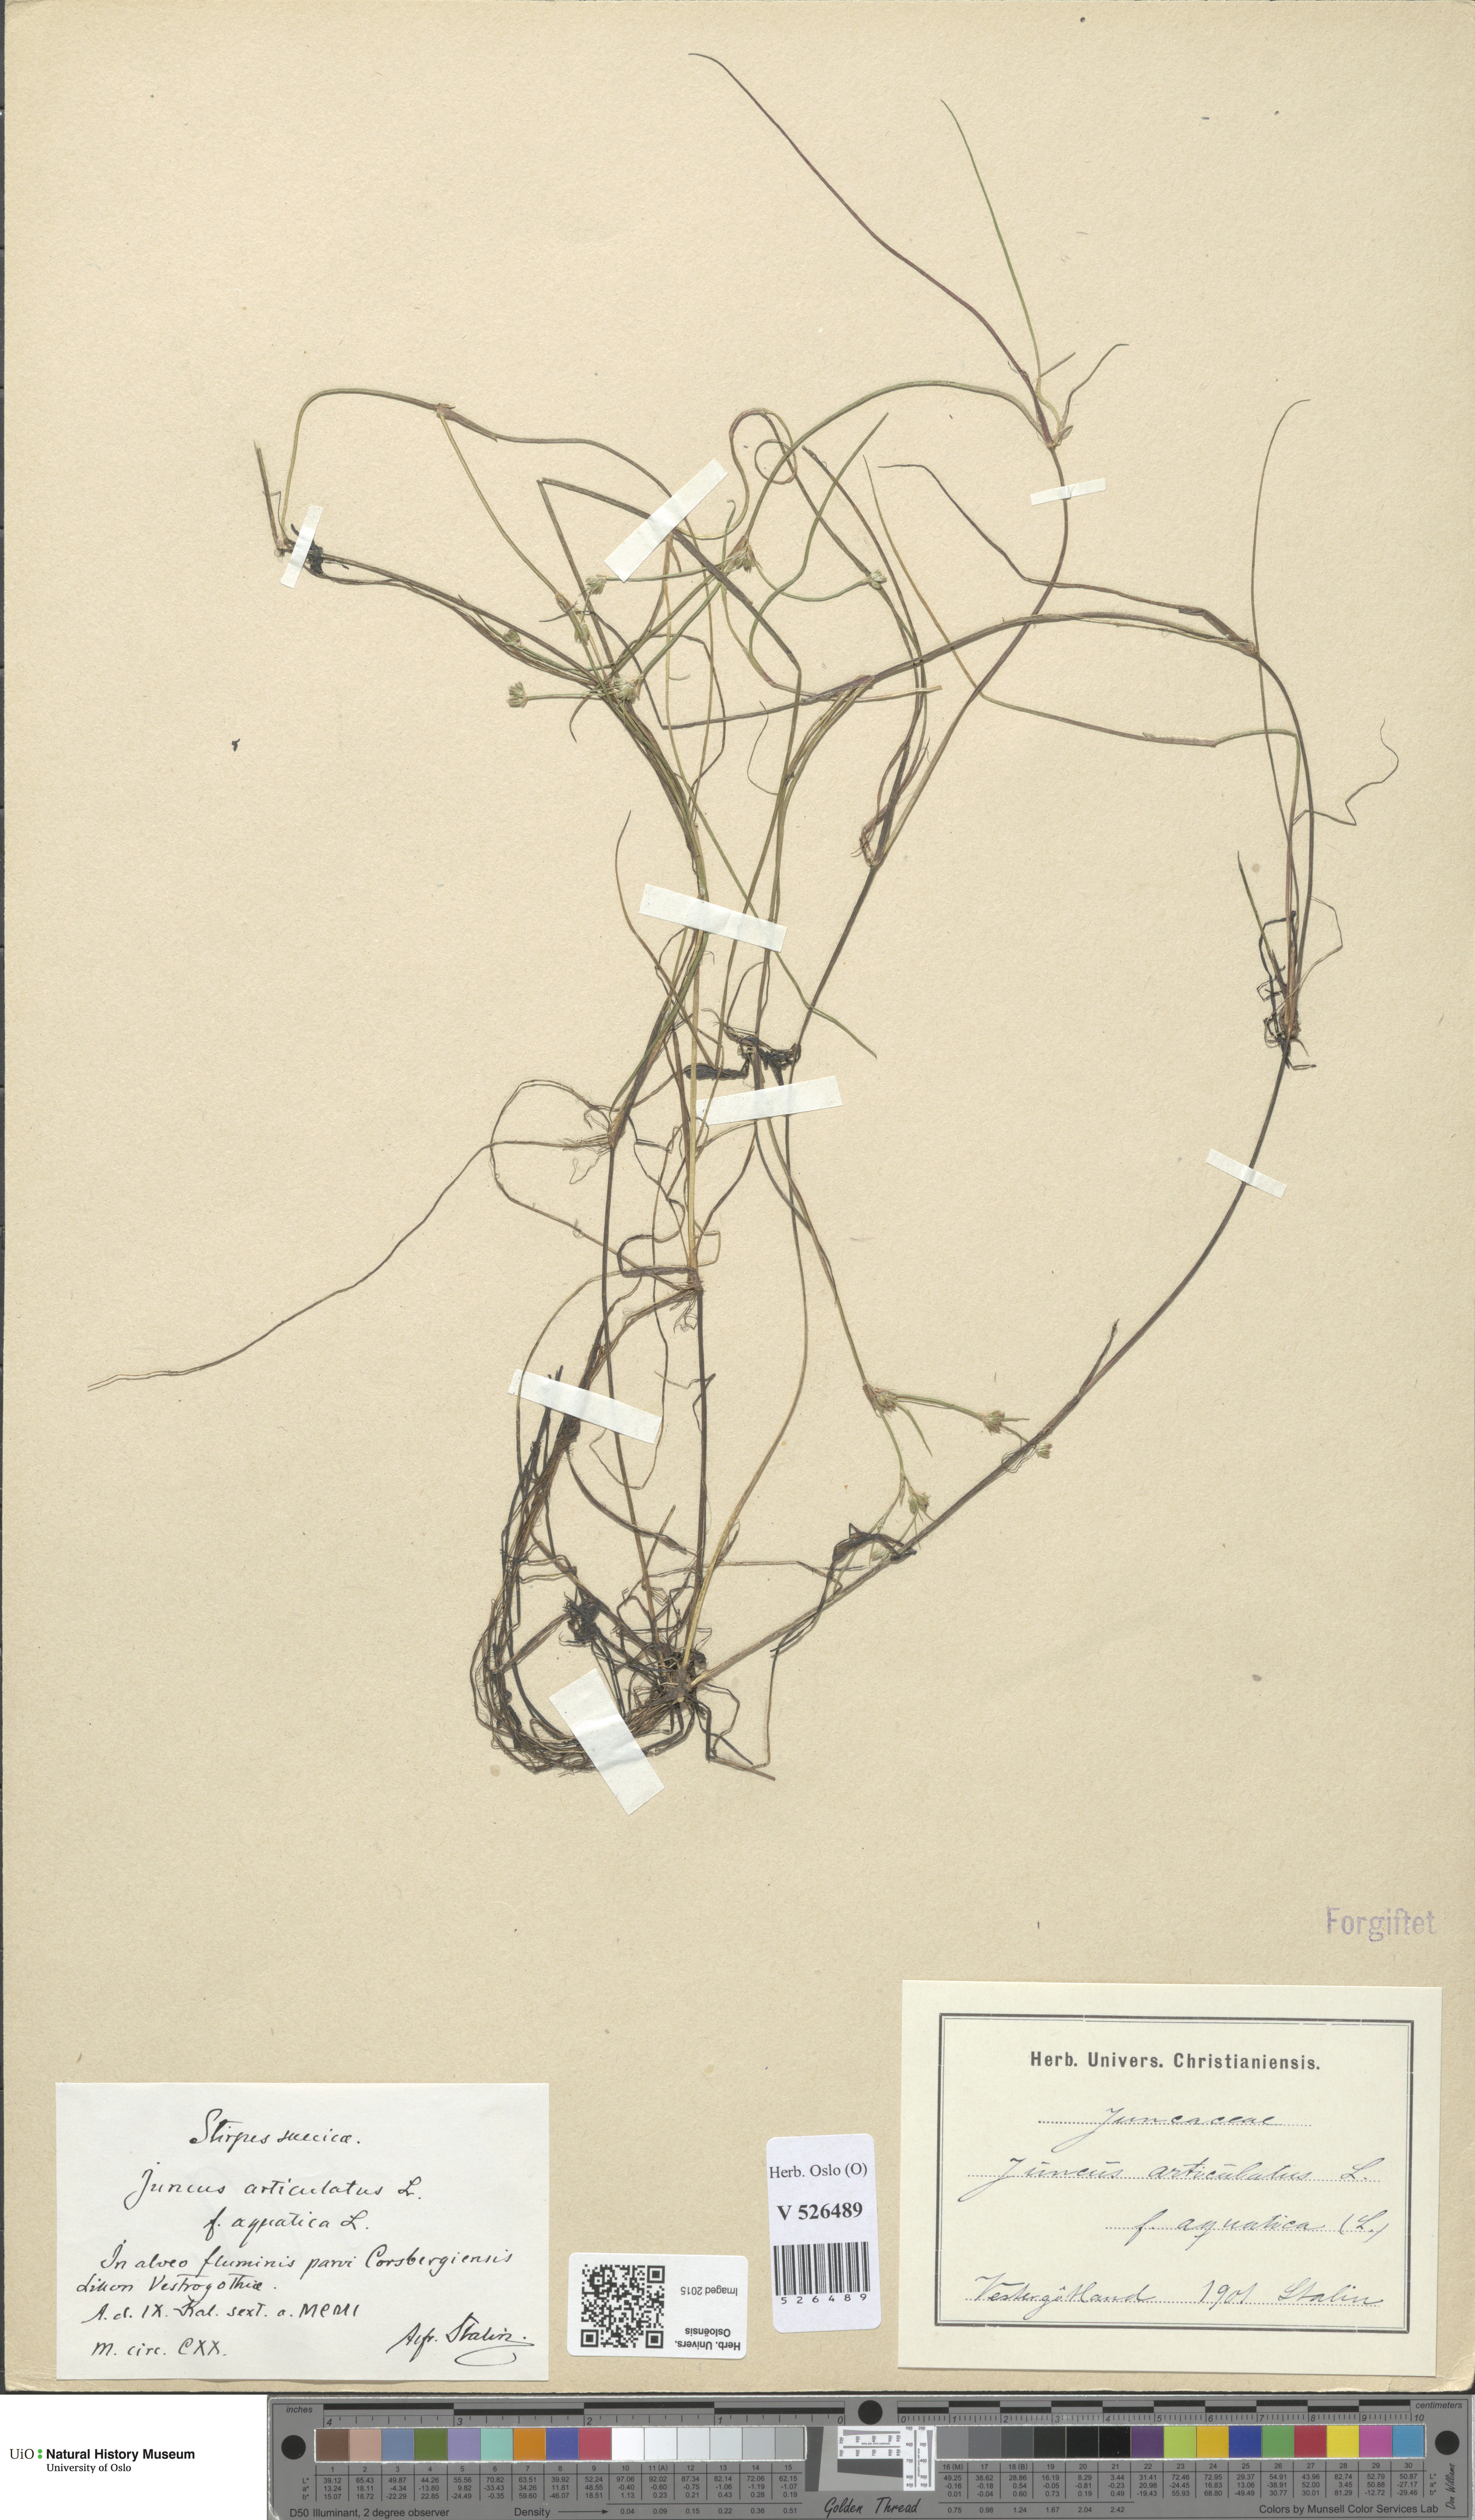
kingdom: Plantae
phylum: Tracheophyta
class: Liliopsida
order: Poales
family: Juncaceae
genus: Juncus
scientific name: Juncus bulbosus
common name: Bulbous rush
